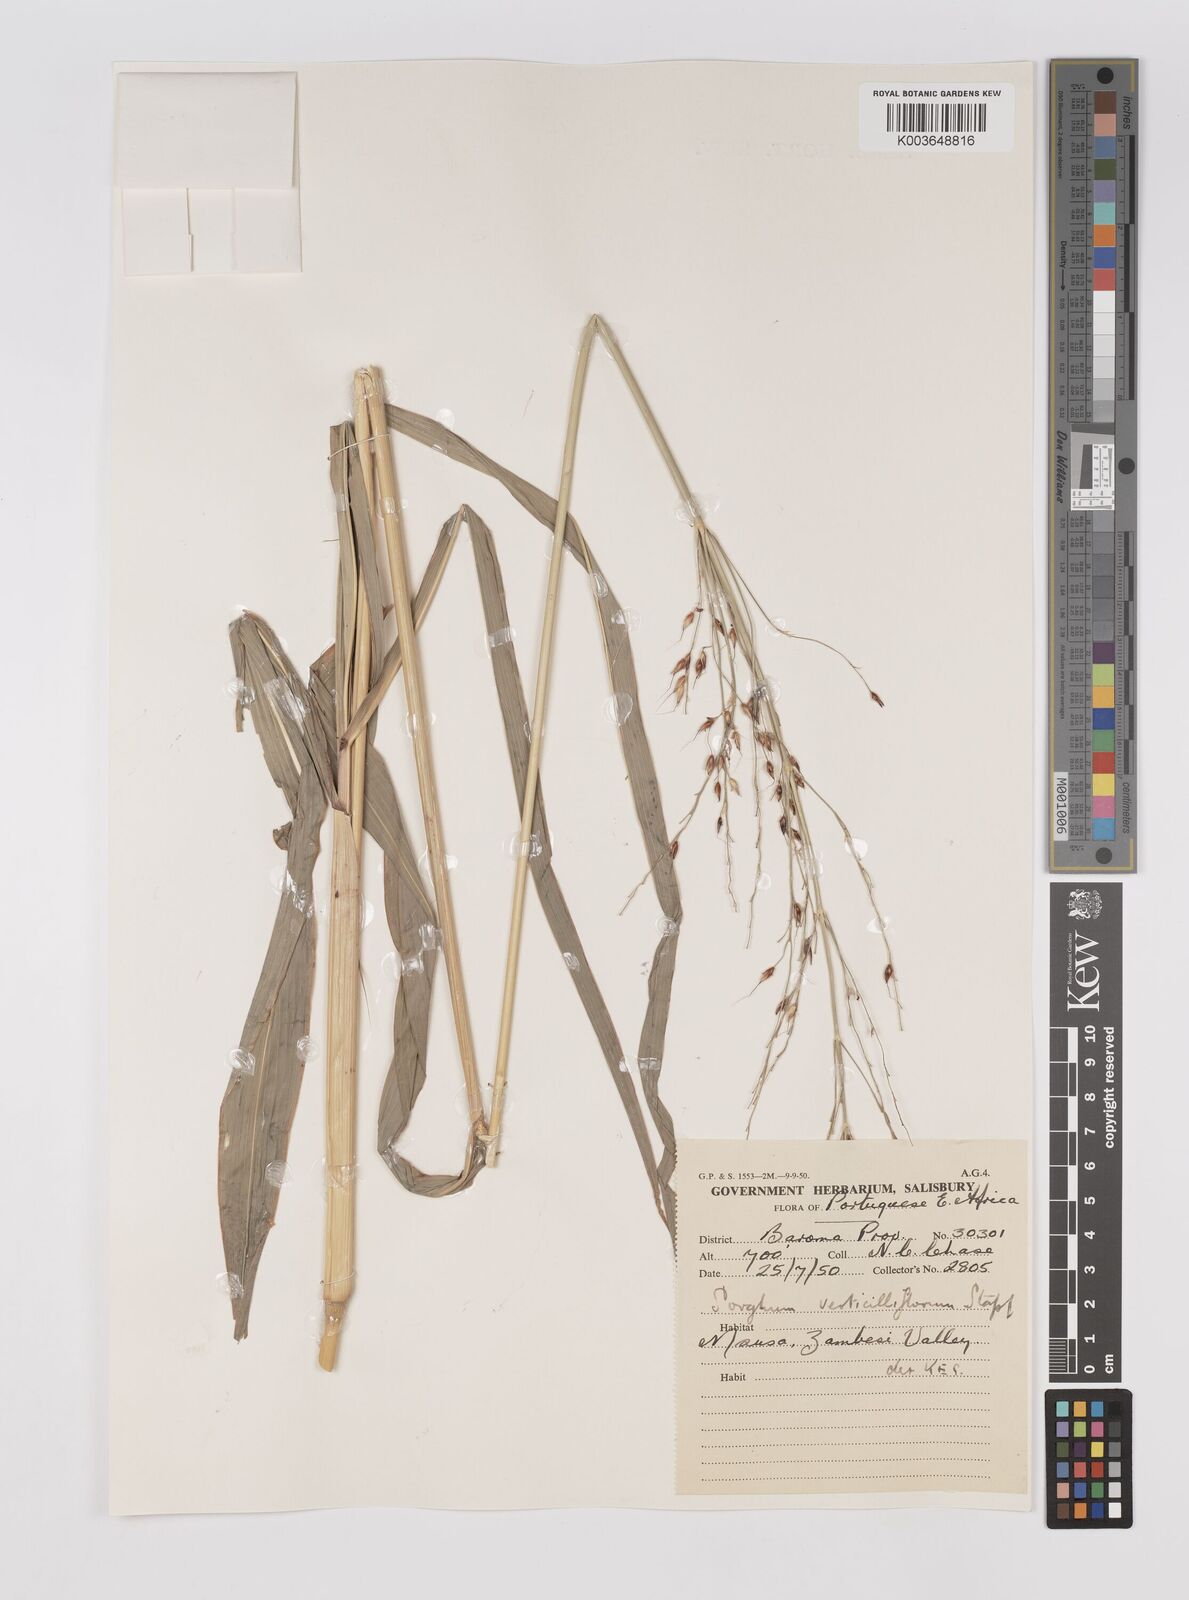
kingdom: Plantae
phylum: Tracheophyta
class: Liliopsida
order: Poales
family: Poaceae
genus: Sorghum
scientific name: Sorghum arundinaceum
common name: Sorghum
